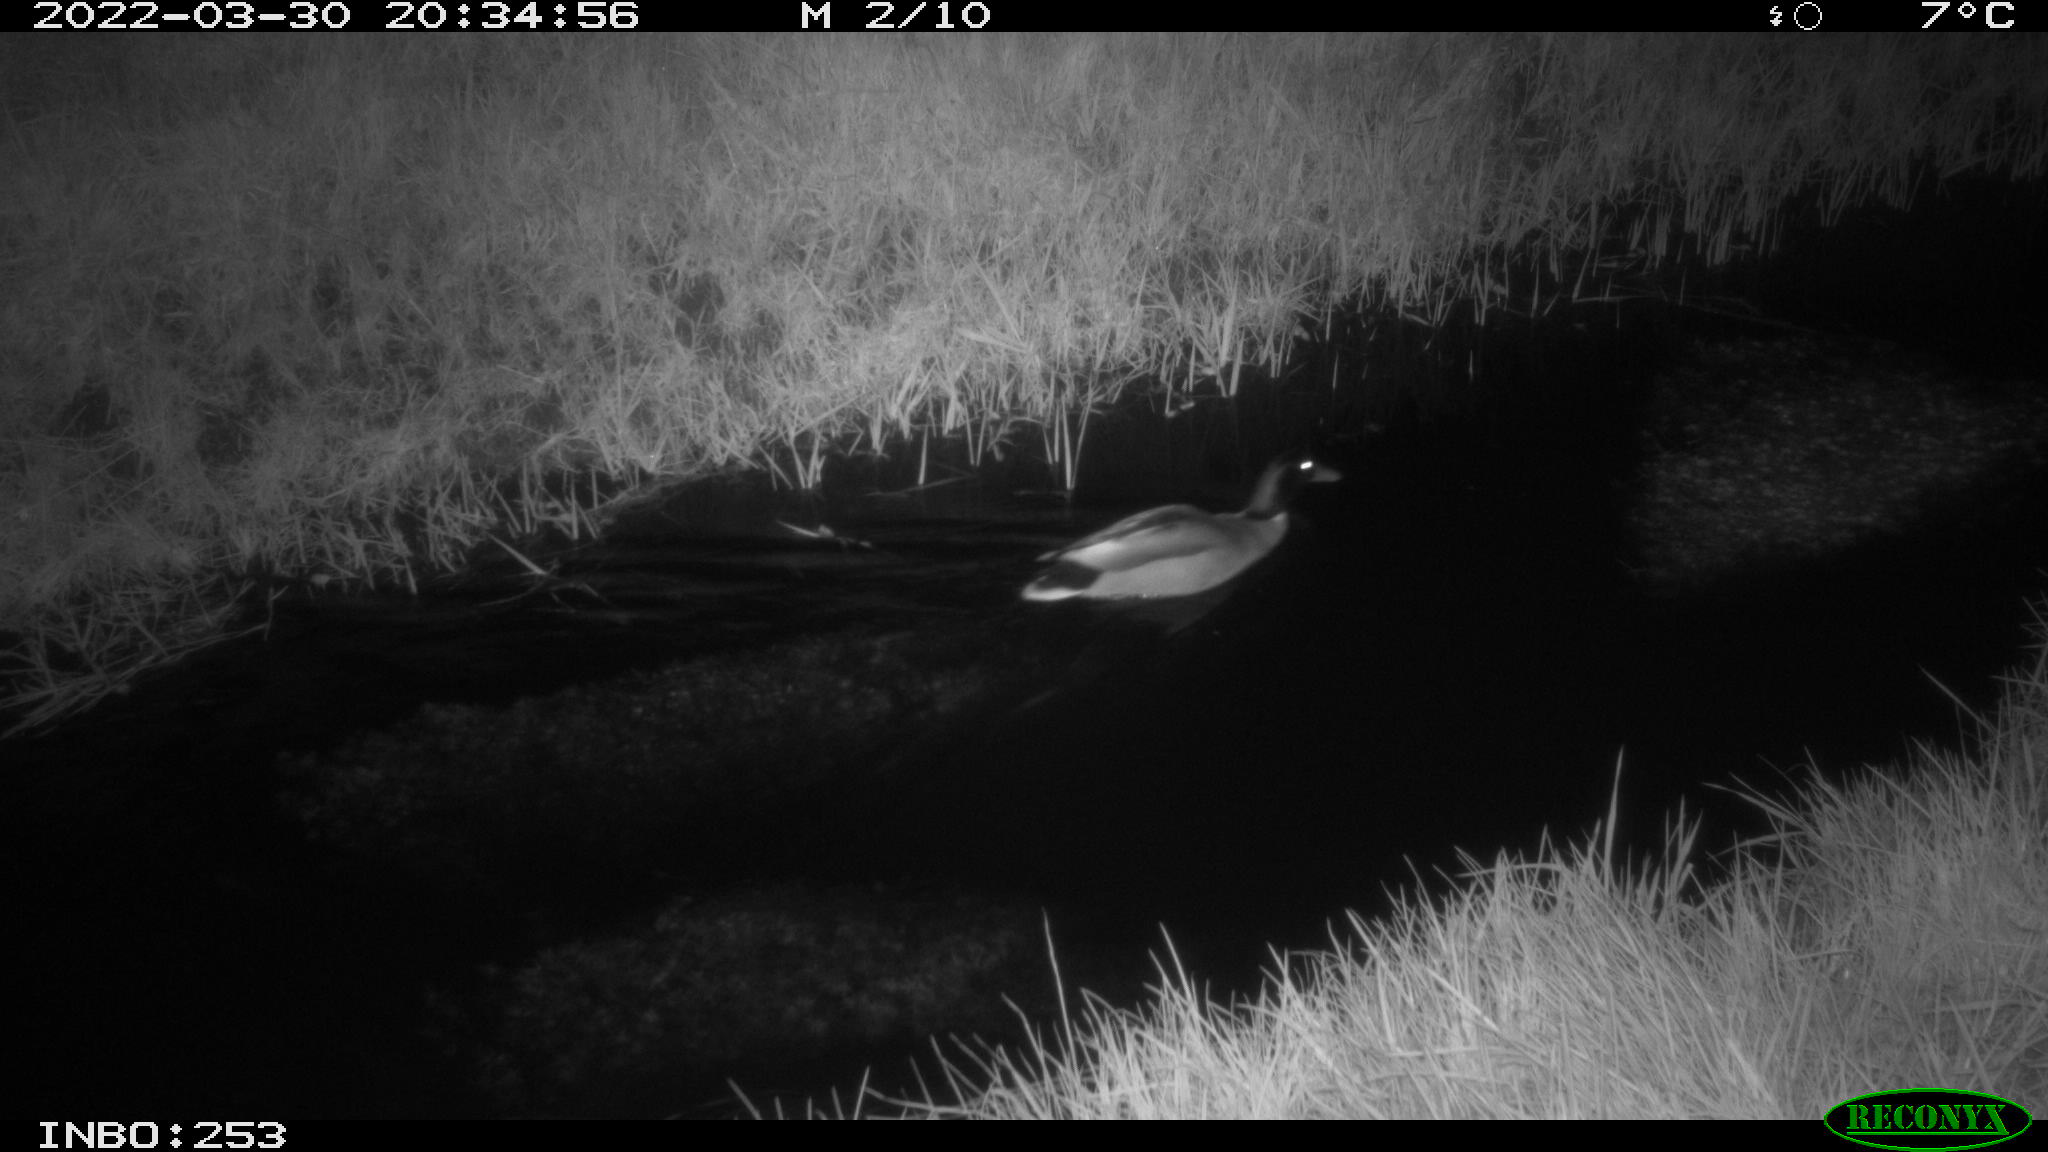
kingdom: Animalia
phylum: Chordata
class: Aves
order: Anseriformes
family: Anatidae
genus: Anas
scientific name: Anas platyrhynchos
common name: Mallard
